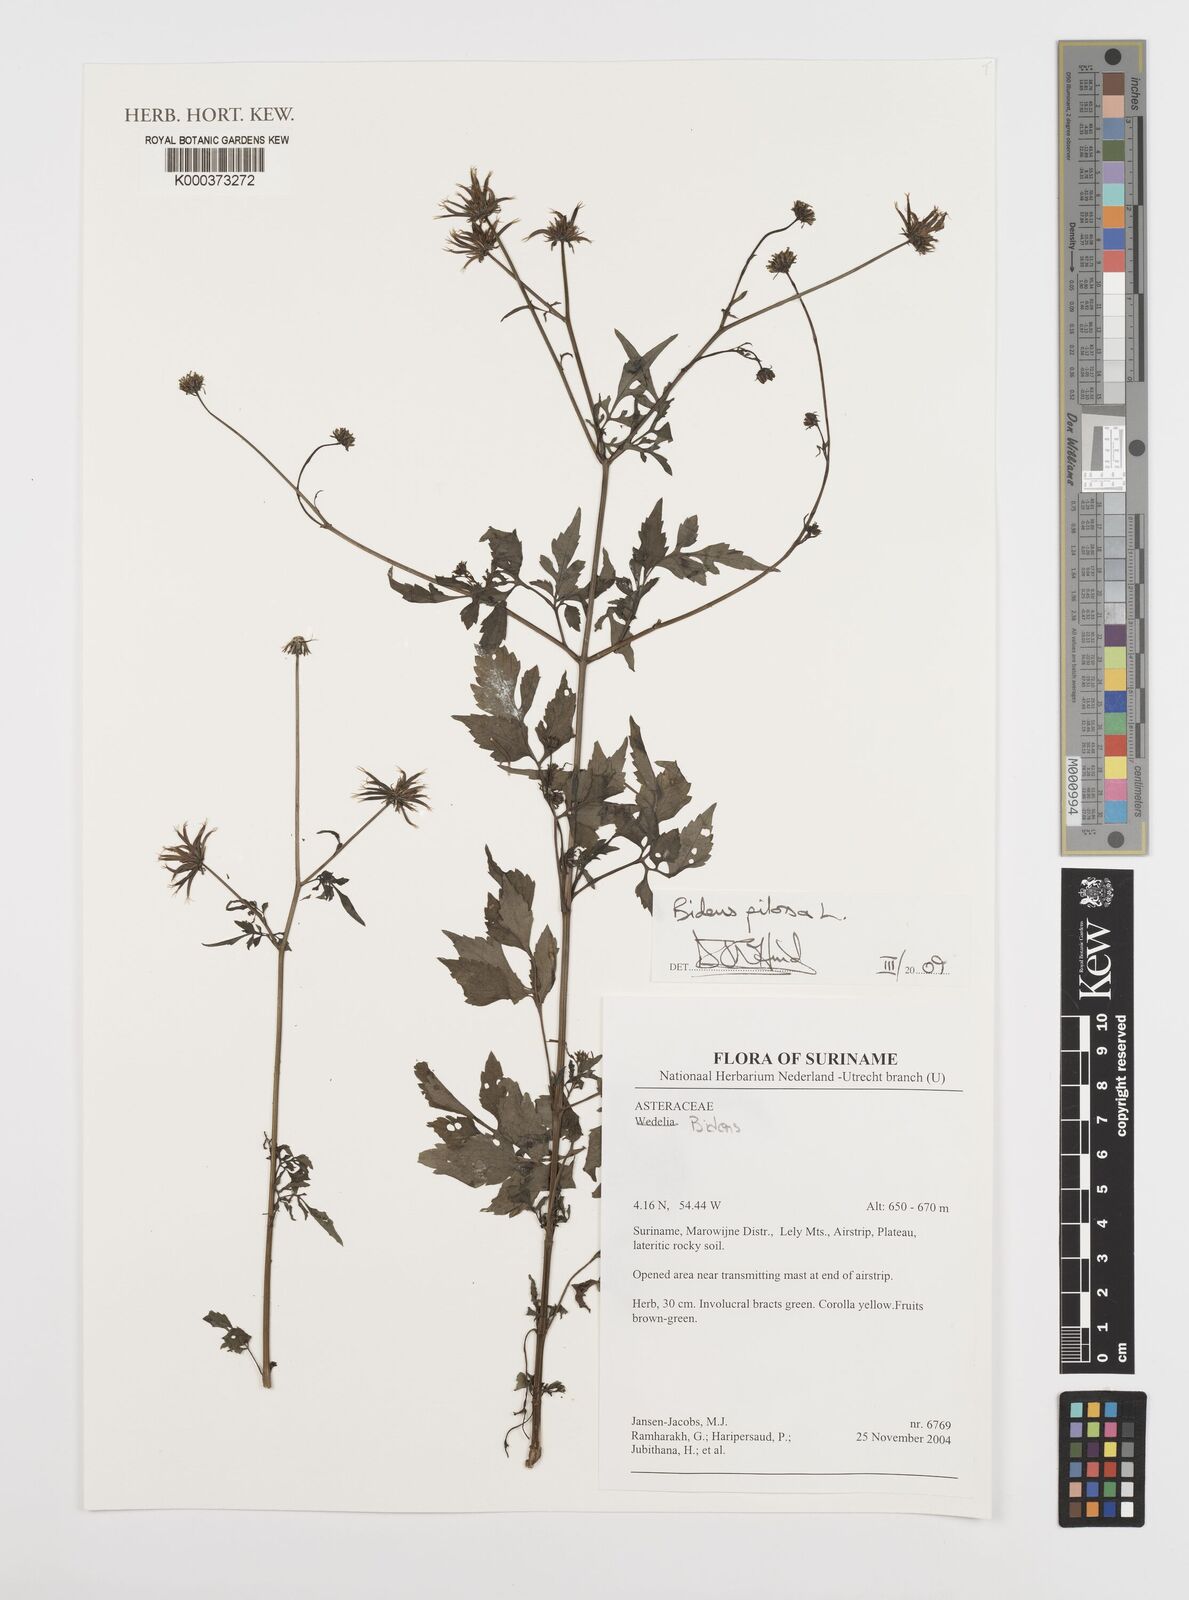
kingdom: Plantae
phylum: Tracheophyta
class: Magnoliopsida
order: Asterales
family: Asteraceae
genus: Bidens
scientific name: Bidens pilosa
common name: Black-jack
